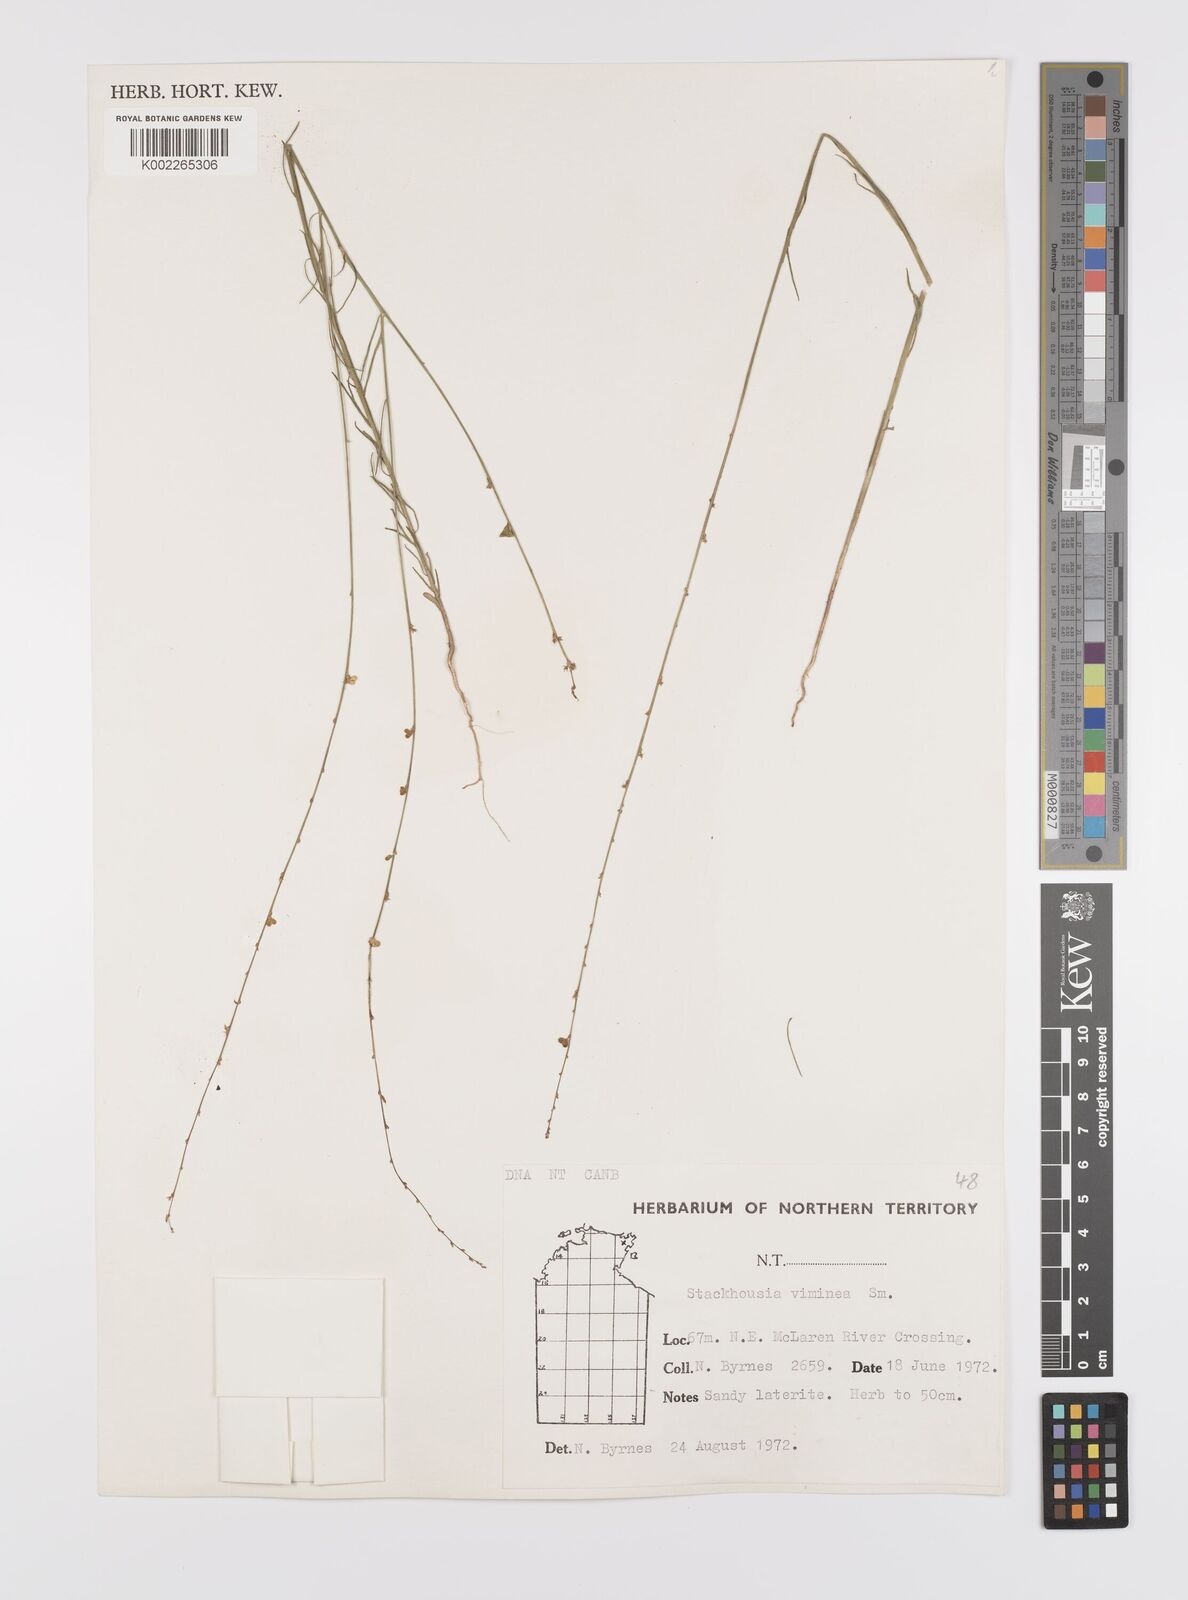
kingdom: Plantae
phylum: Tracheophyta
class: Magnoliopsida
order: Celastrales
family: Celastraceae
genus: Stackhousia
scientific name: Stackhousia viminea
